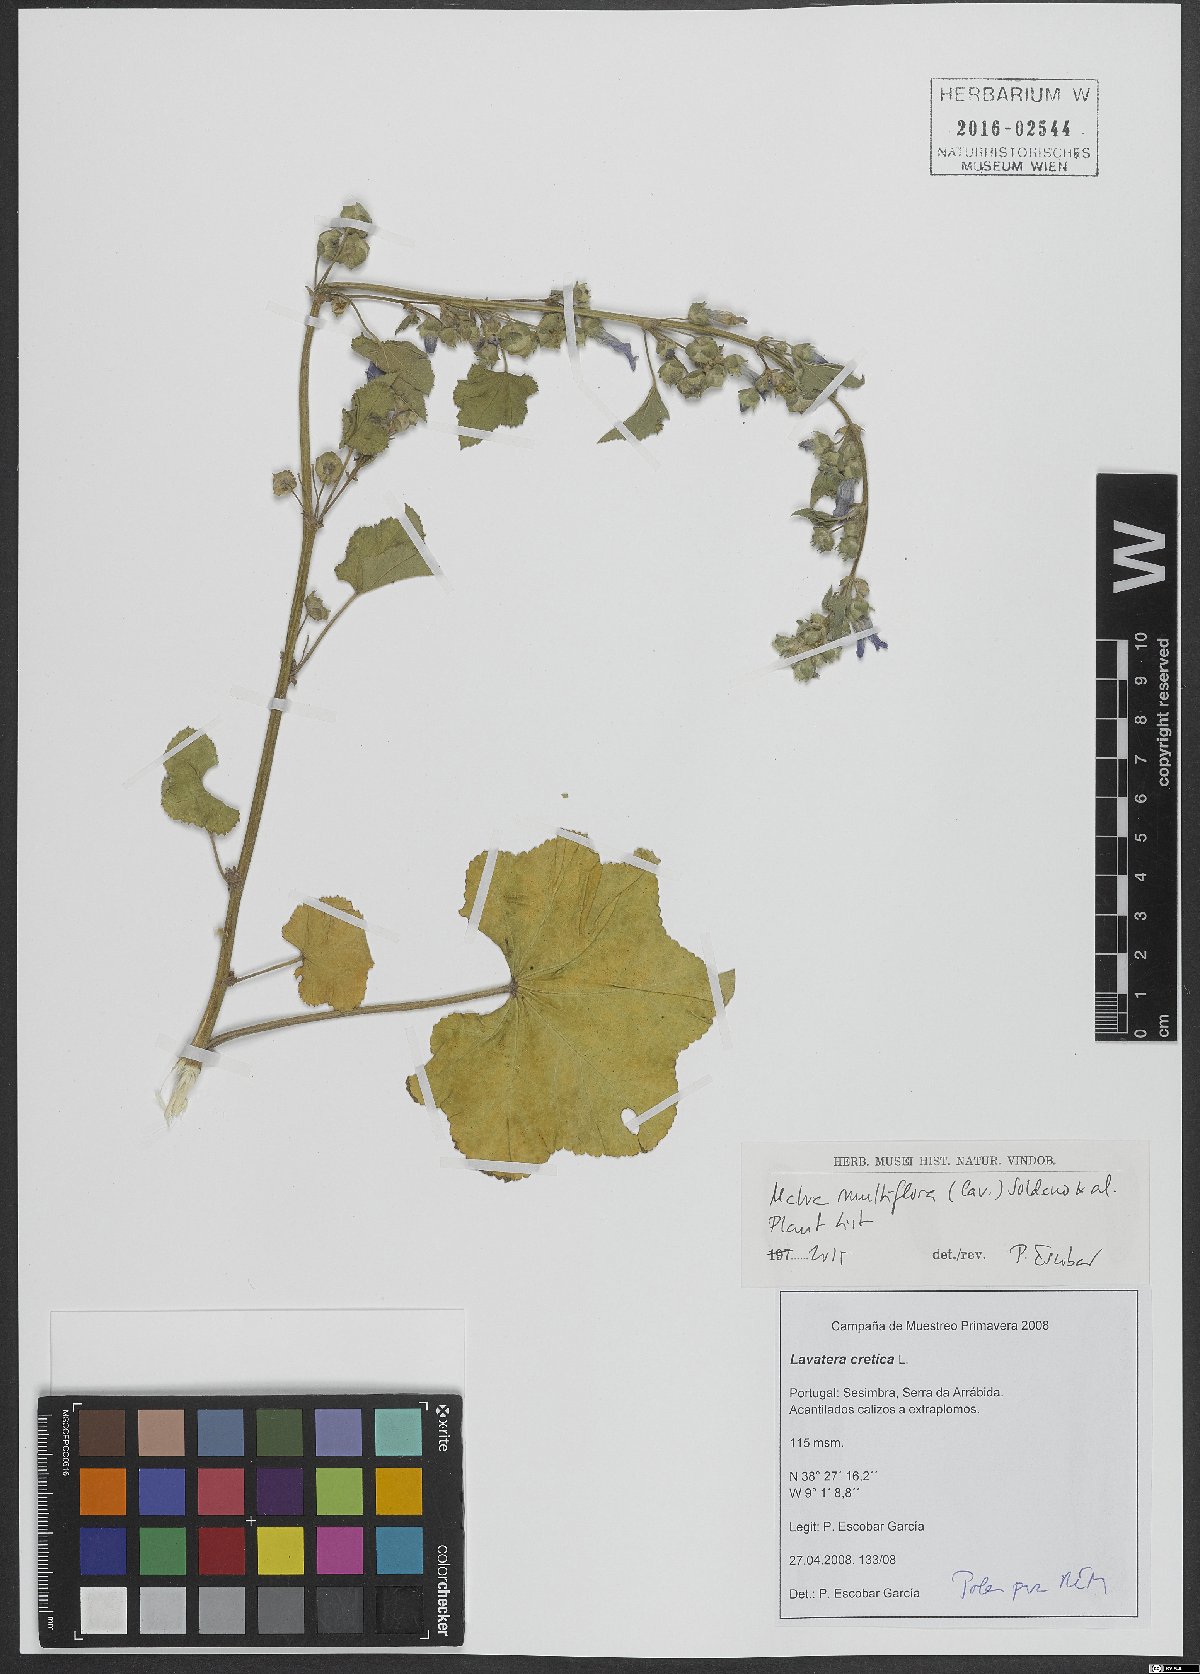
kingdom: Plantae
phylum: Tracheophyta
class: Magnoliopsida
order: Malvales
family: Malvaceae
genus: Malva
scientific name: Malva multiflora
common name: Cheeseweed
